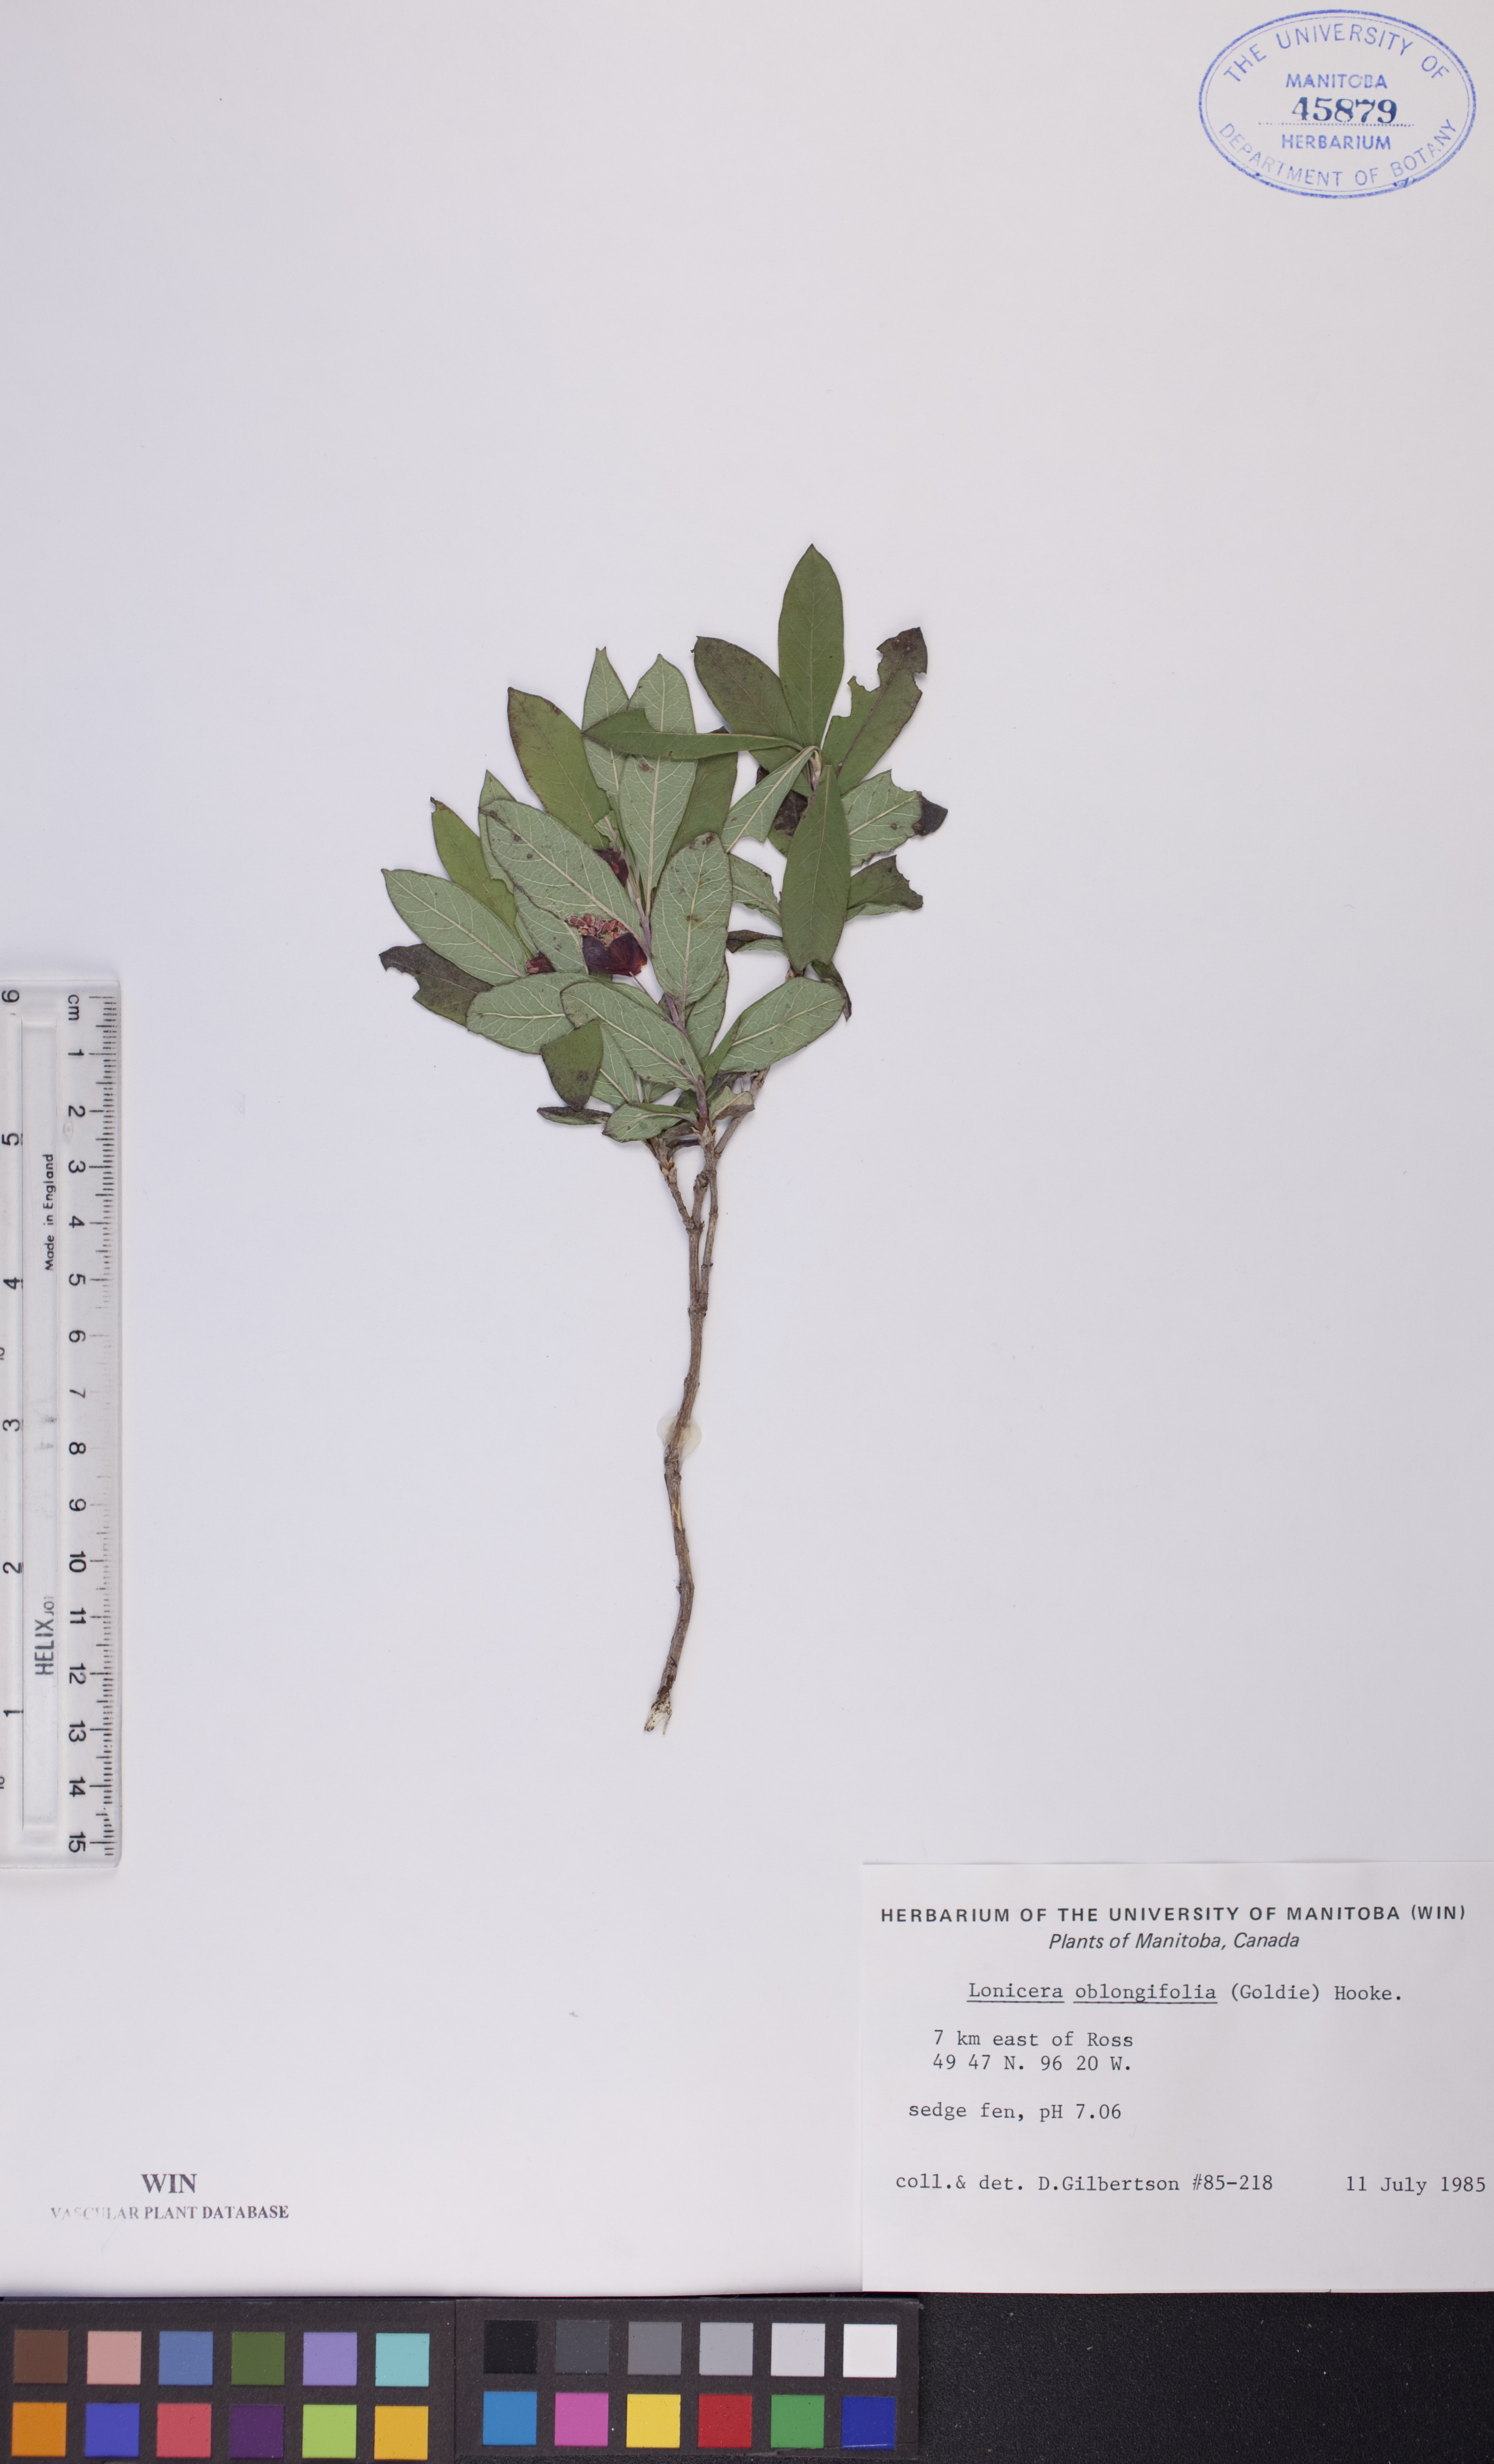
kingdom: Plantae
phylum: Tracheophyta
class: Magnoliopsida
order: Dipsacales
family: Caprifoliaceae
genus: Lonicera
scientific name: Lonicera oblongifolia
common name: Swamp fly honeysuckle
